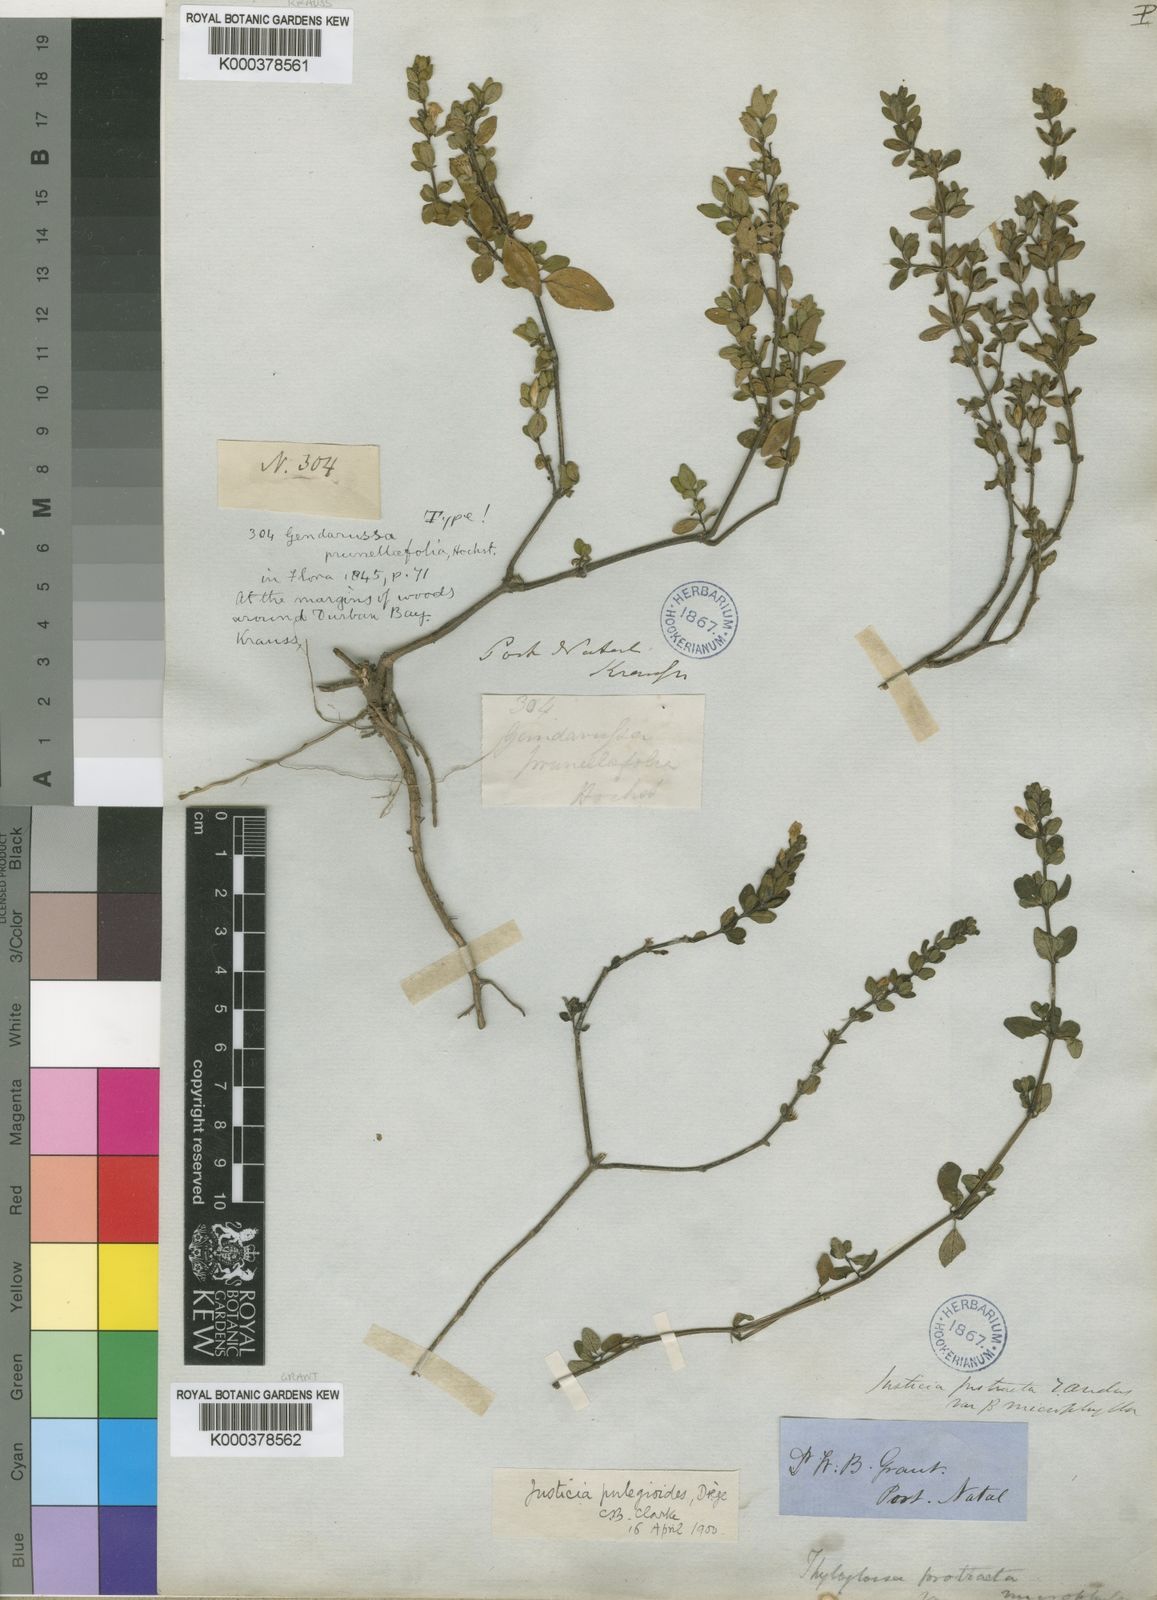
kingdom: Plantae
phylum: Tracheophyta
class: Magnoliopsida
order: Lamiales
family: Acanthaceae
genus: Justicia
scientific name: Justicia protracta
